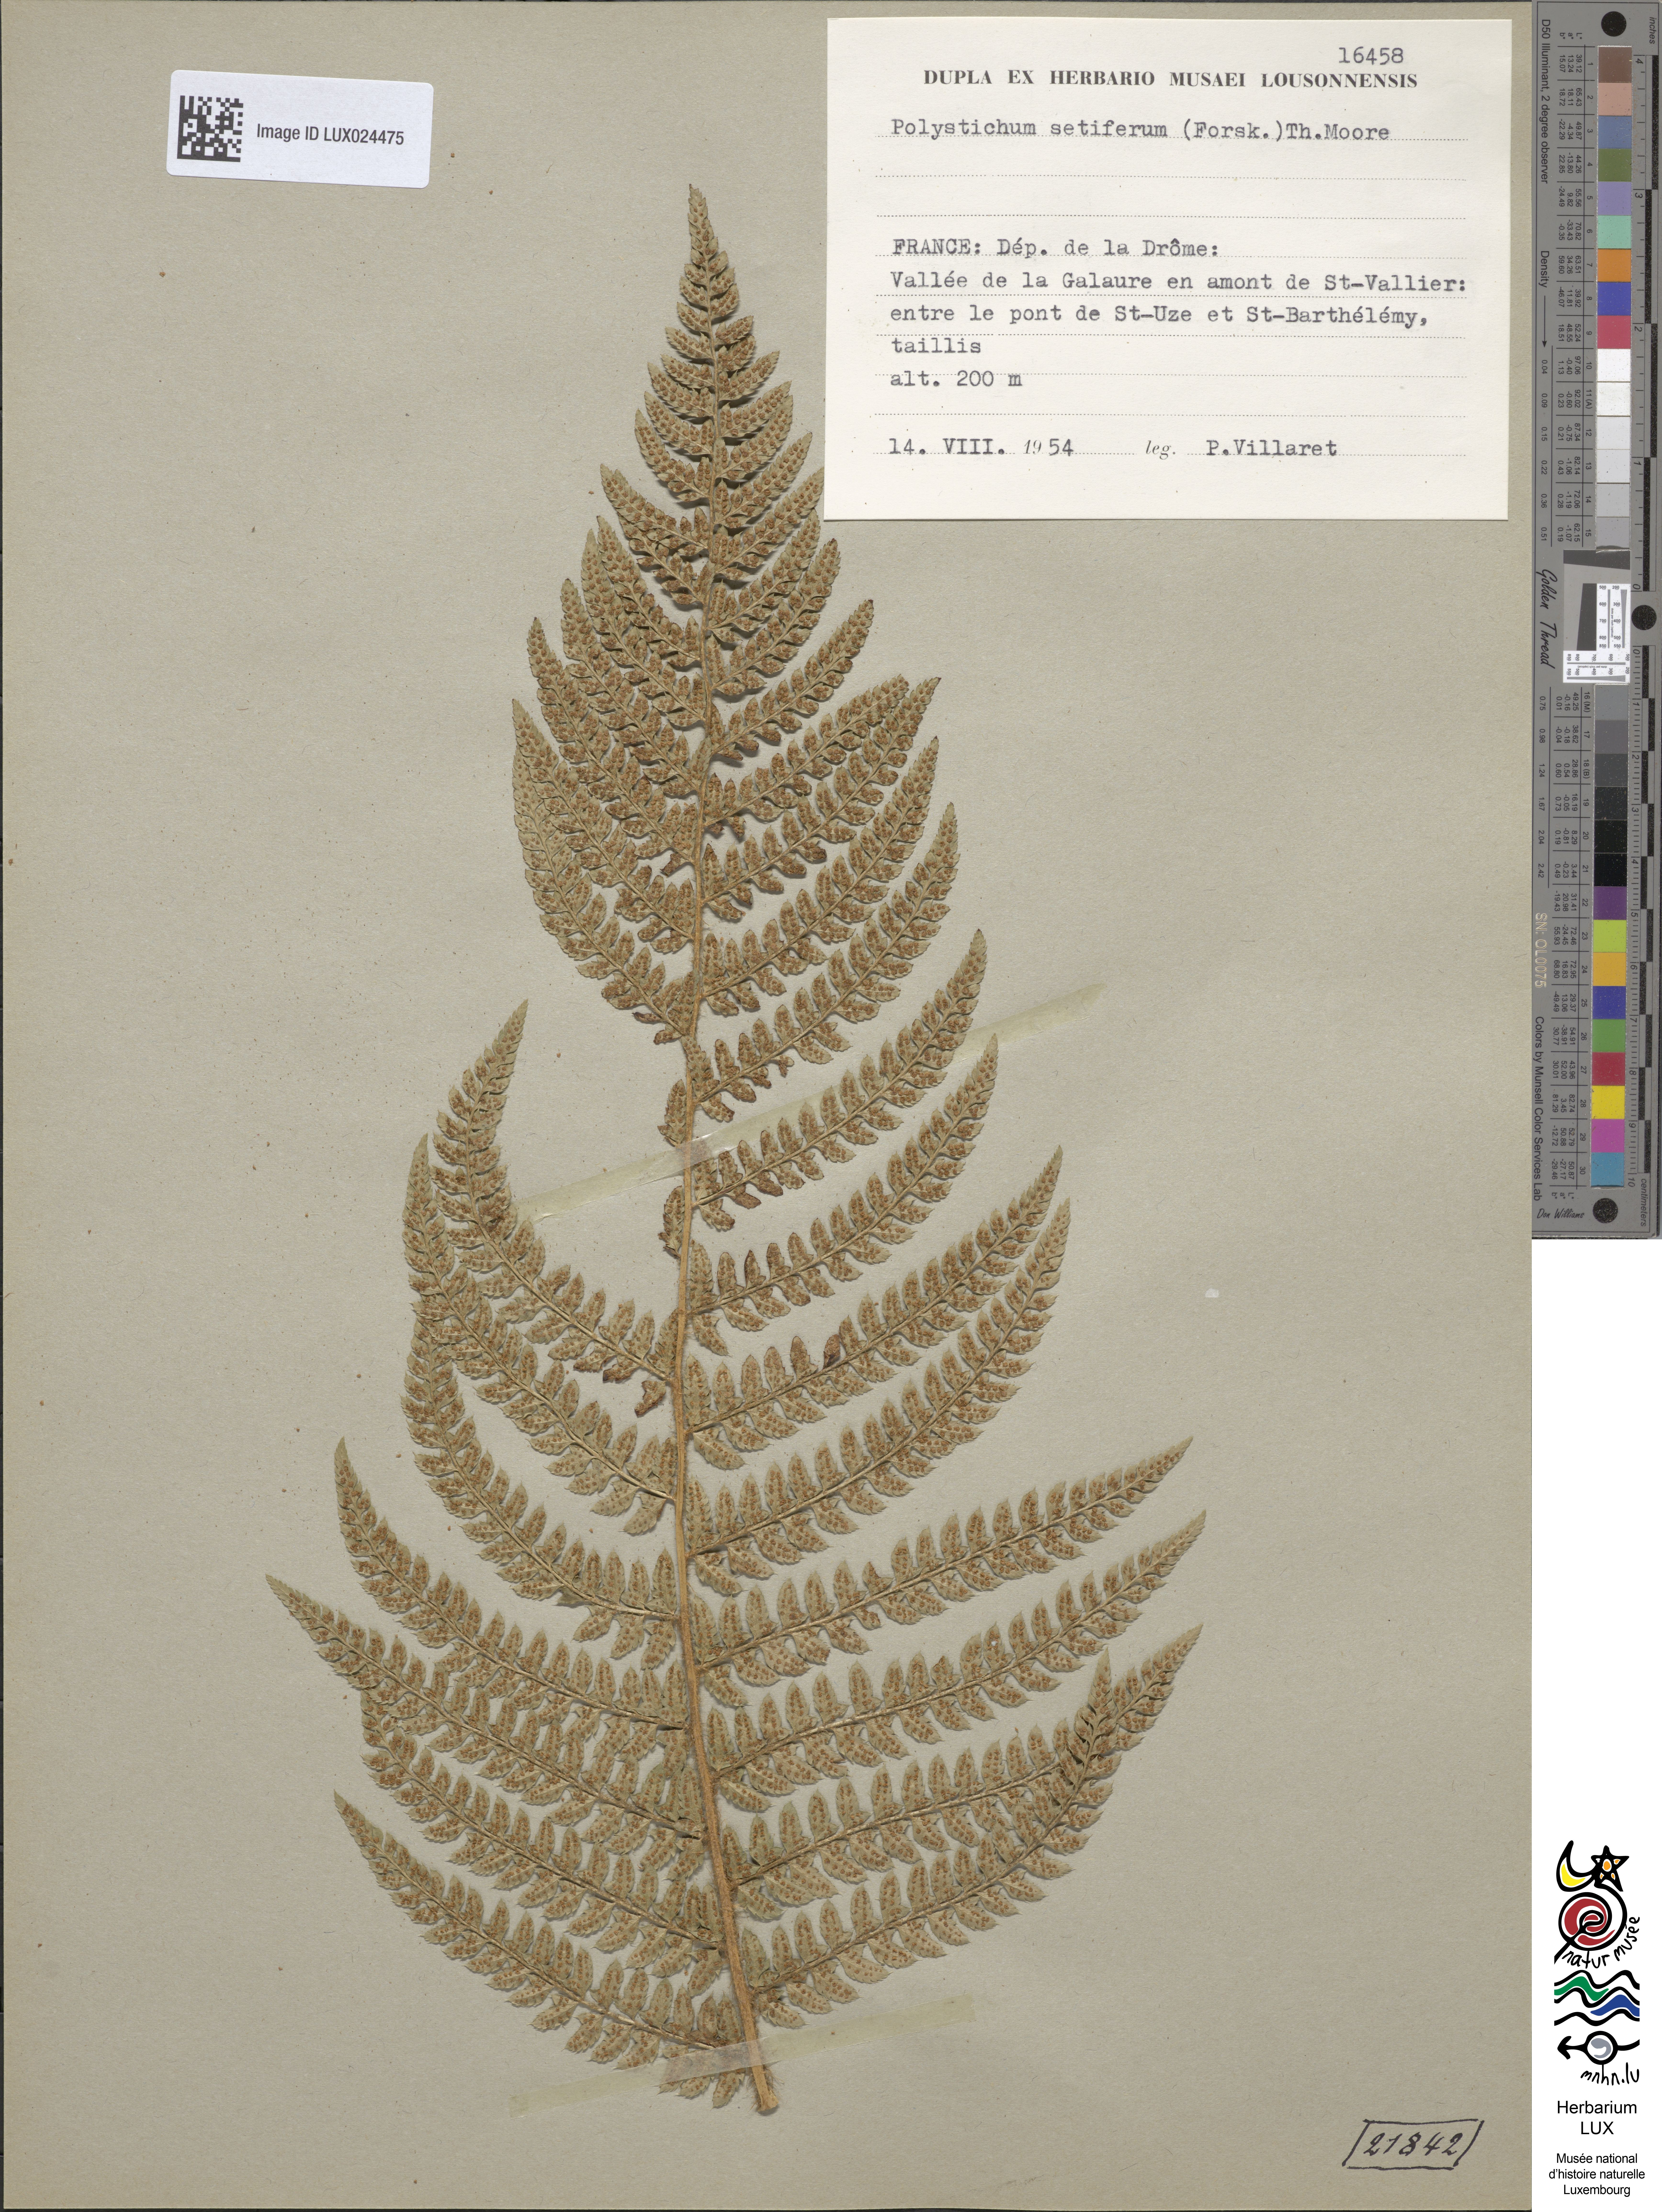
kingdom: Plantae
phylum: Tracheophyta
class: Polypodiopsida
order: Polypodiales
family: Dryopteridaceae
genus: Polystichum
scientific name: Polystichum setiferum
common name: Soft shield-fern
